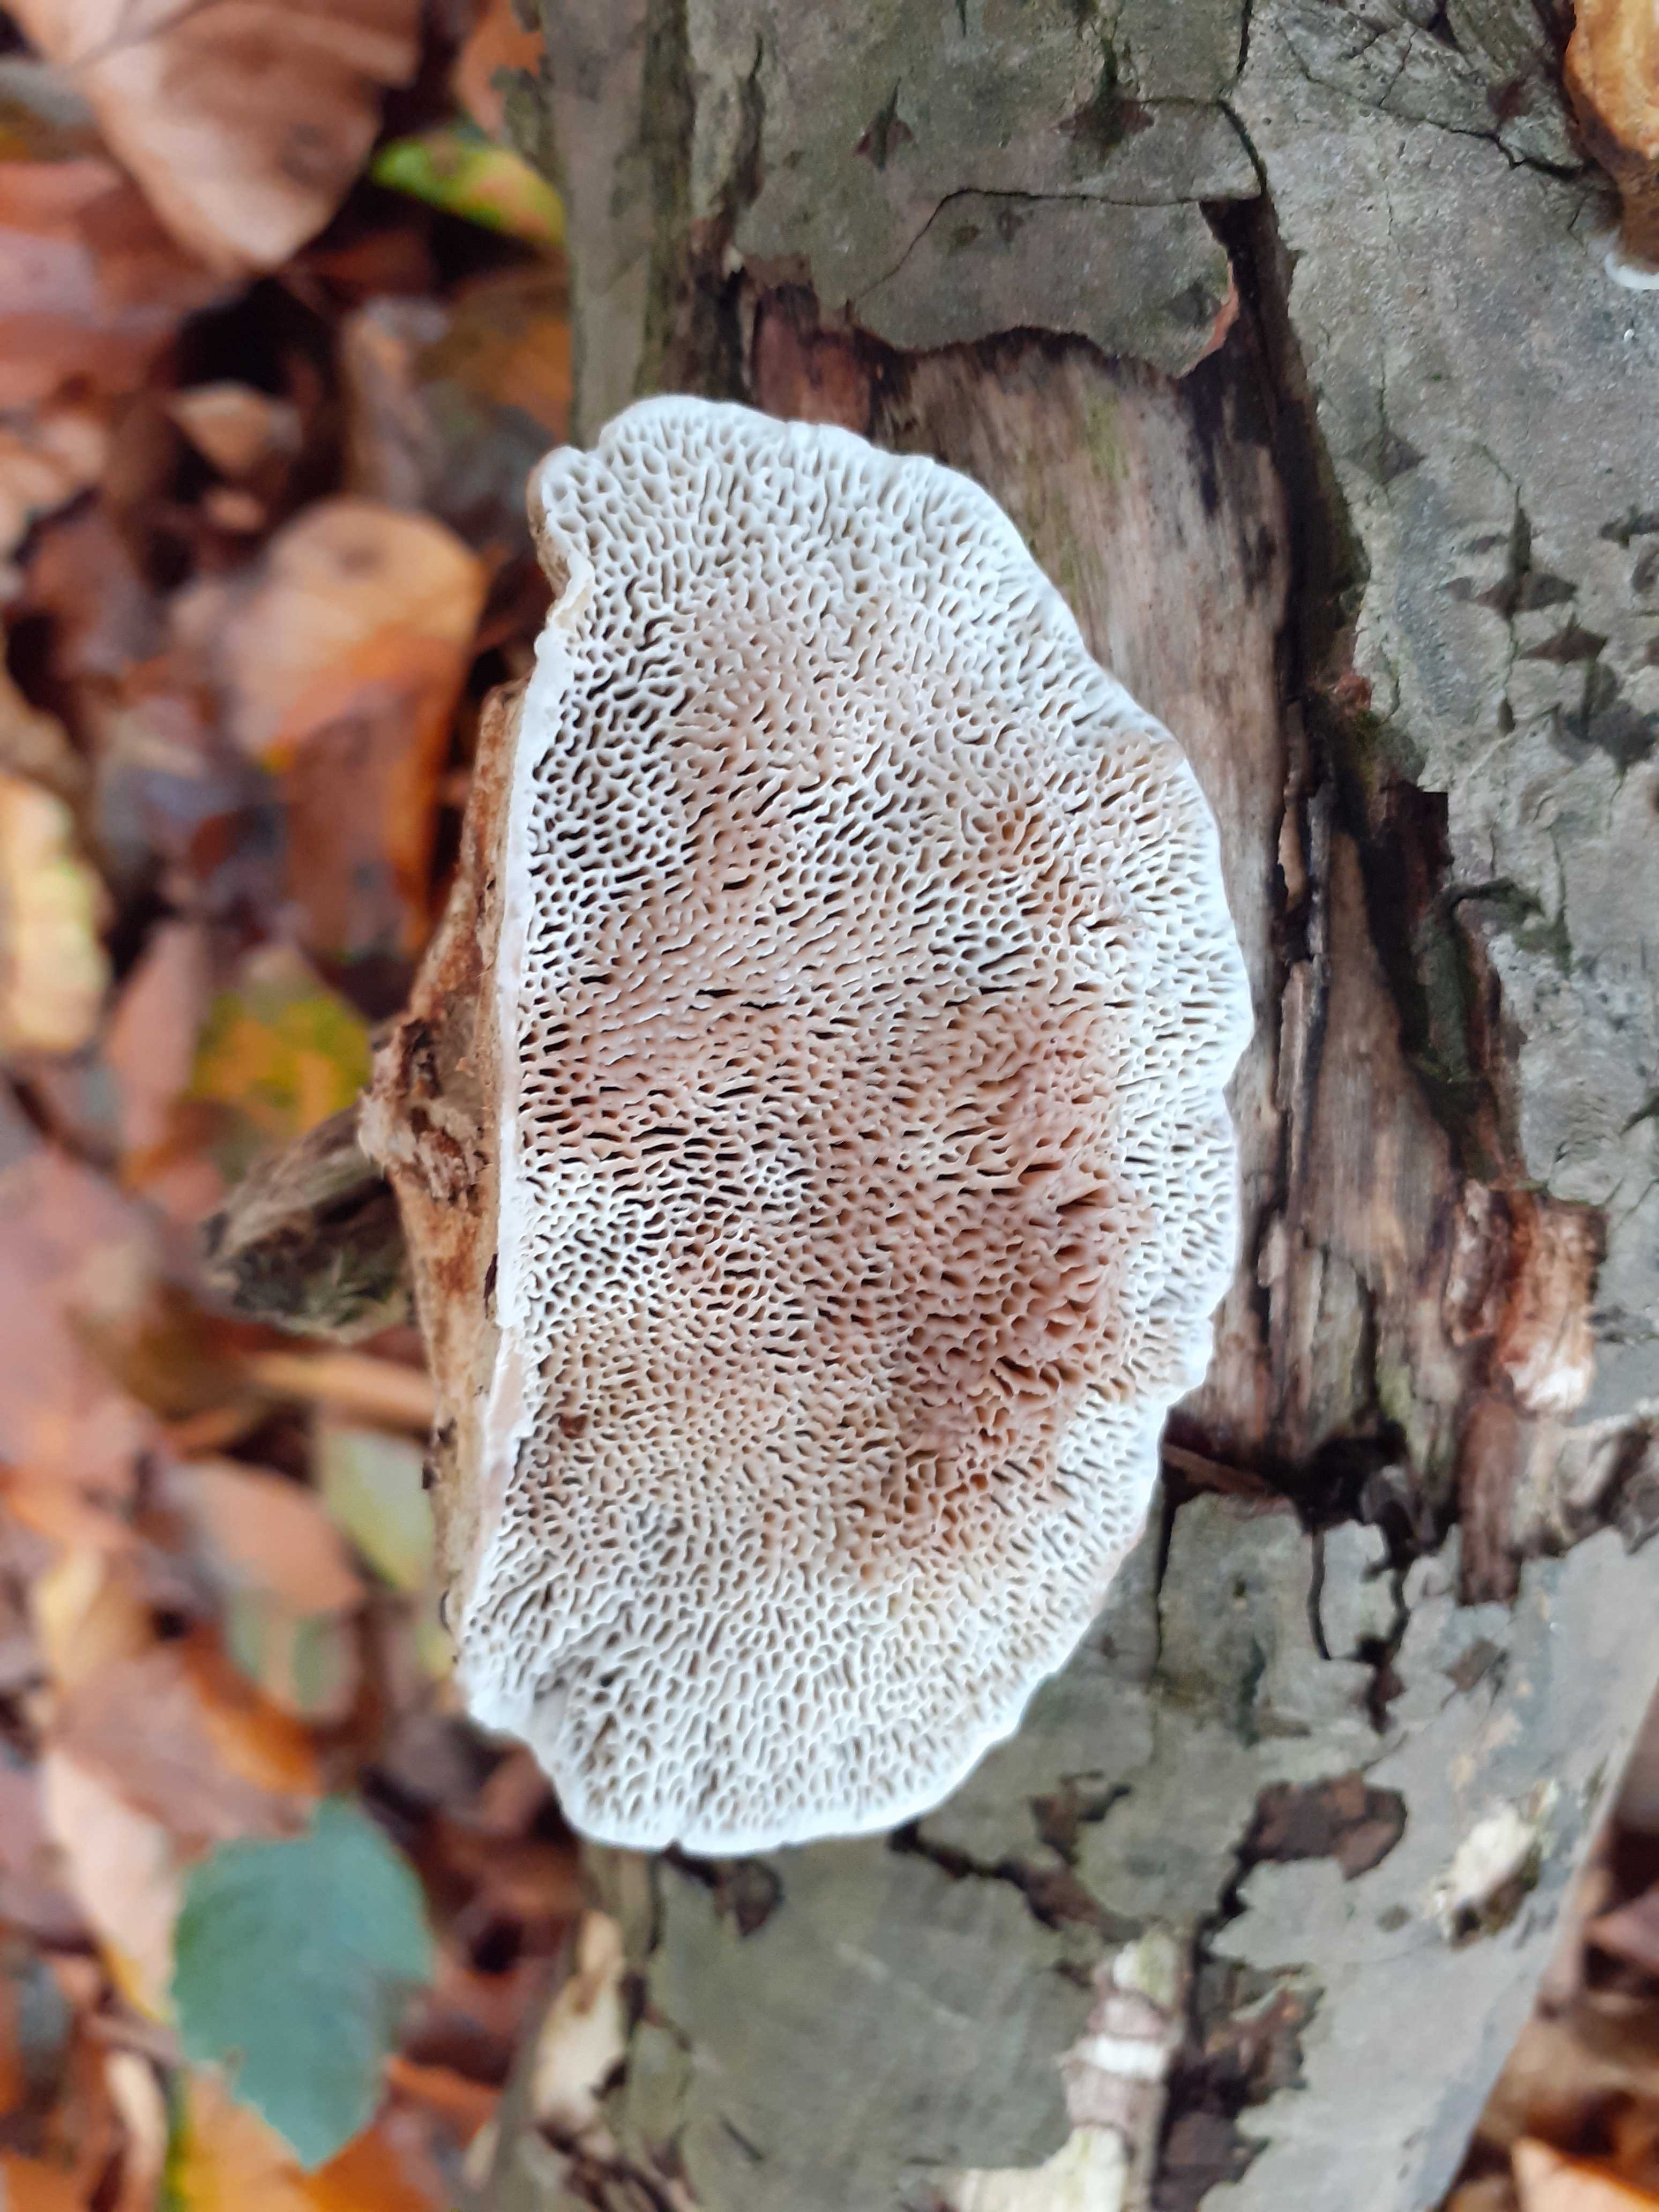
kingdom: Fungi
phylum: Basidiomycota
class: Agaricomycetes
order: Polyporales
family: Polyporaceae
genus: Daedaleopsis
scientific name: Daedaleopsis confragosa
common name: rødmende læderporesvamp
